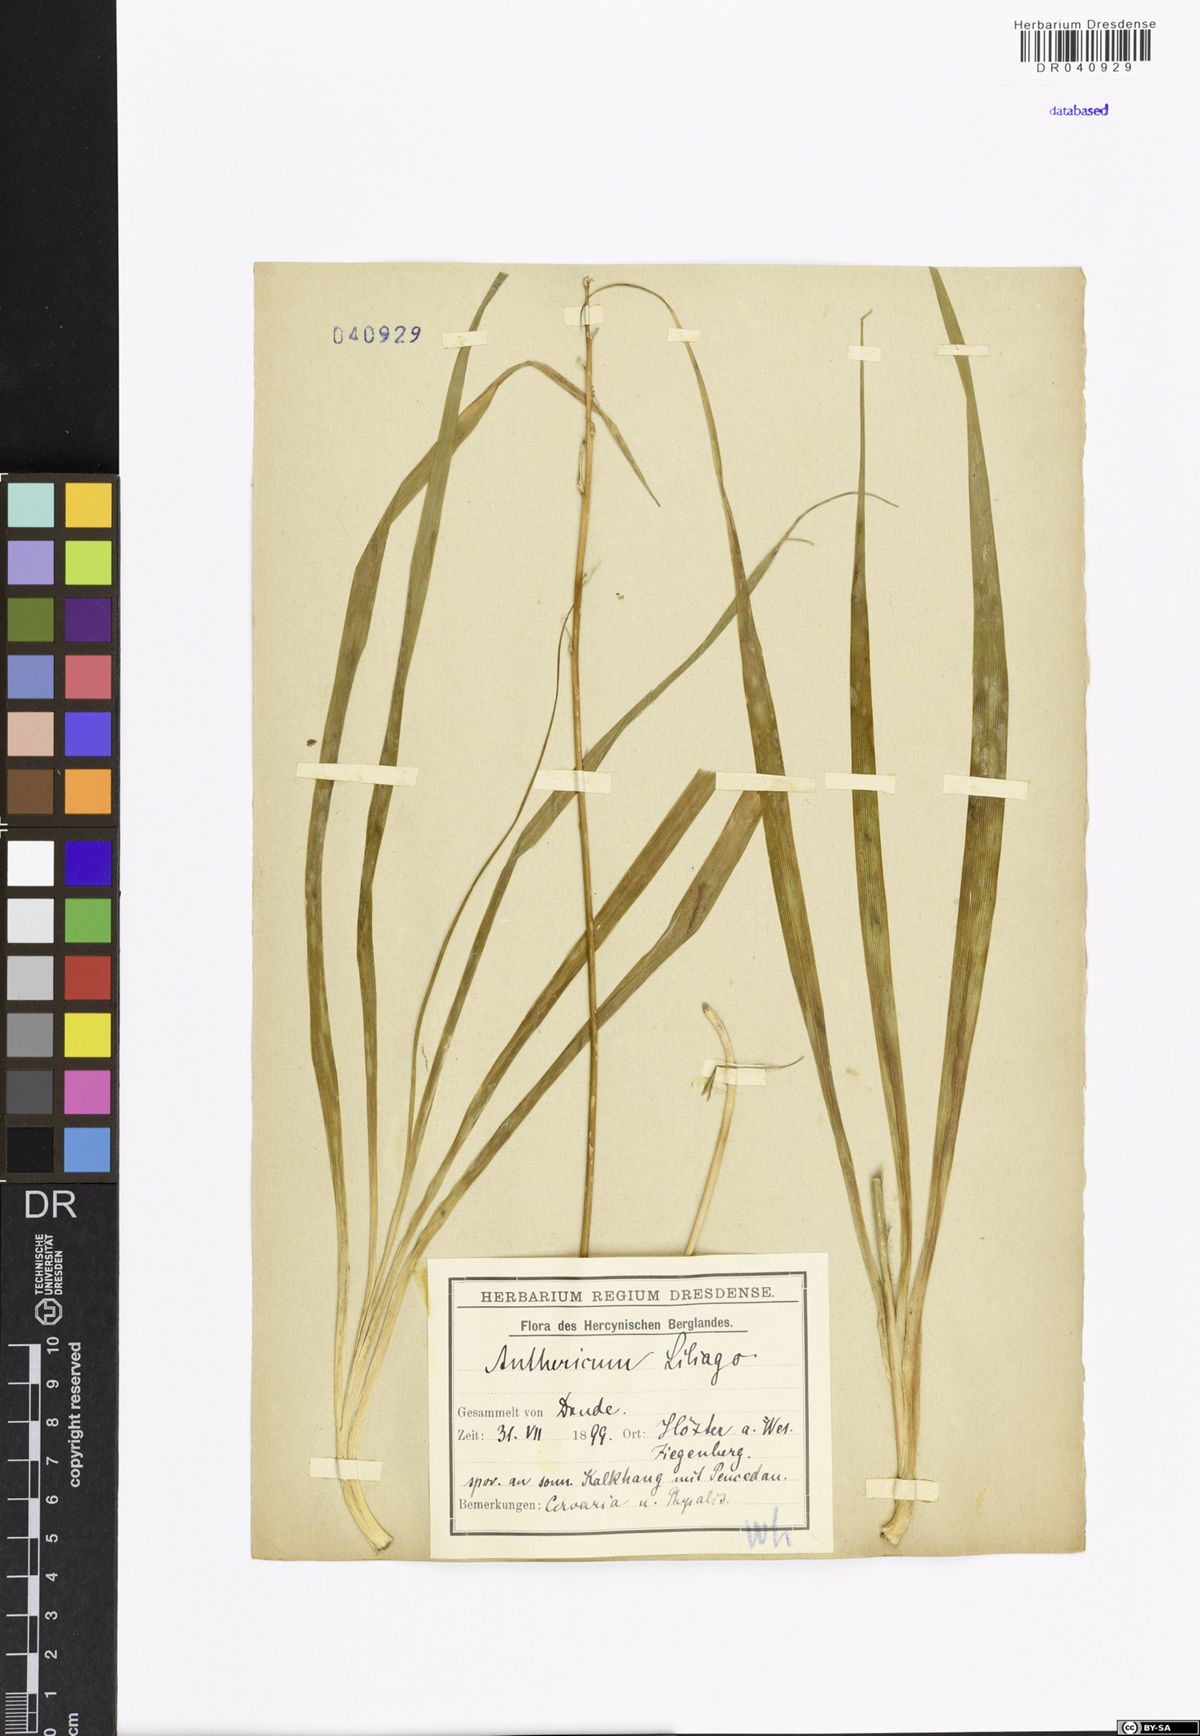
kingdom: Plantae
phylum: Tracheophyta
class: Liliopsida
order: Asparagales
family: Asparagaceae
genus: Anthericum
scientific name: Anthericum liliago
